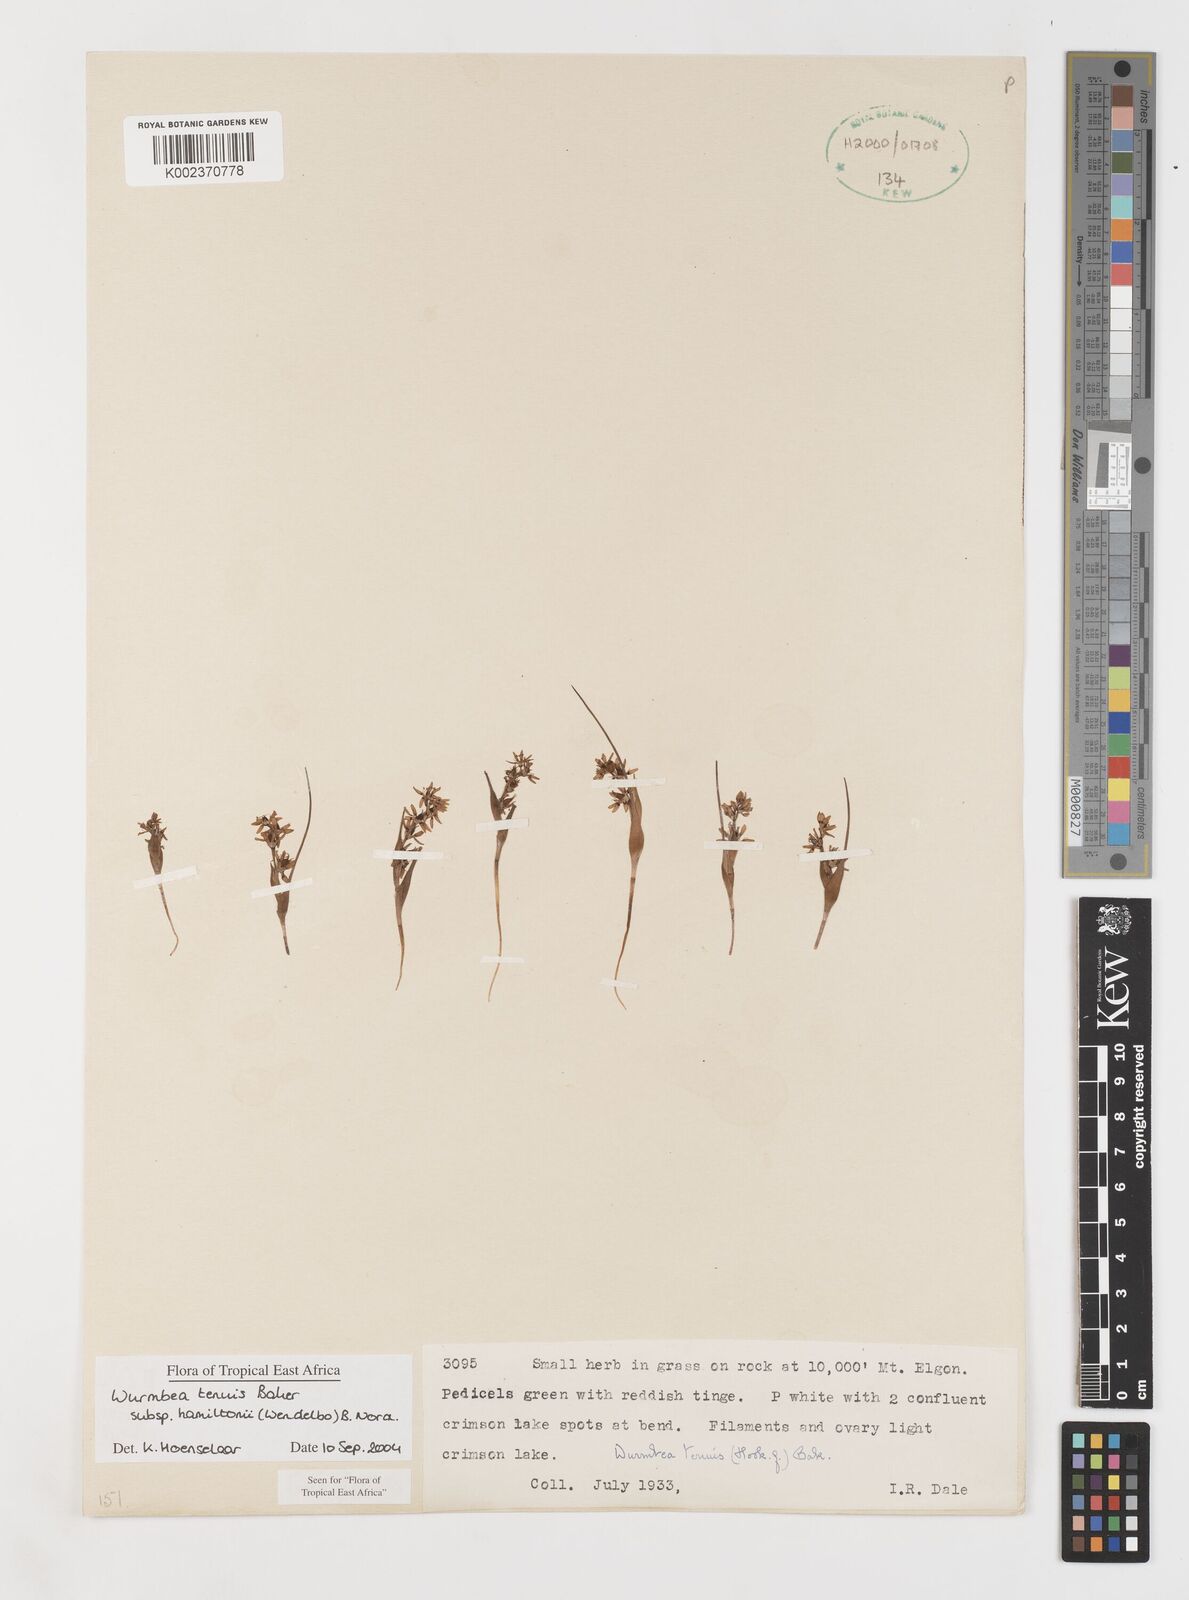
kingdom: Plantae
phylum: Tracheophyta
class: Liliopsida
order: Liliales
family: Colchicaceae
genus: Wurmbea
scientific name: Wurmbea tenuis
